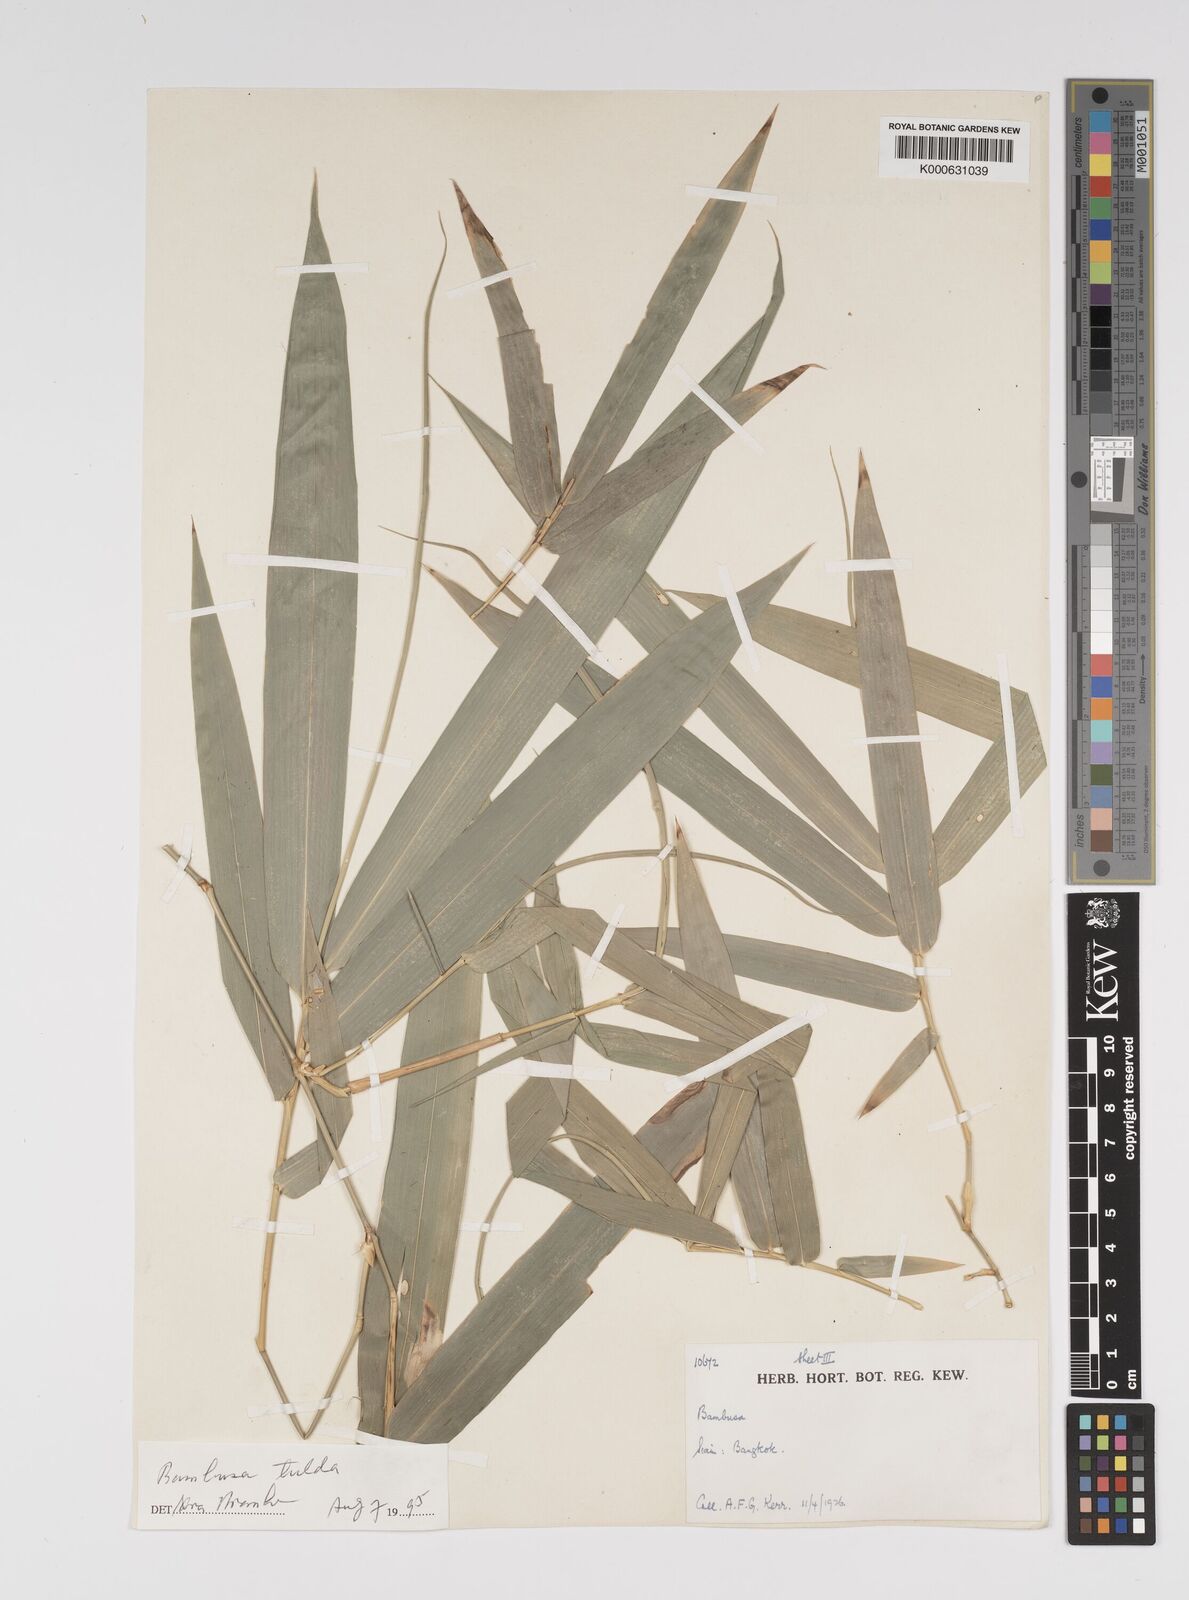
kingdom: Plantae
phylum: Tracheophyta
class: Liliopsida
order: Poales
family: Poaceae
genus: Bambusa
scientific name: Bambusa
